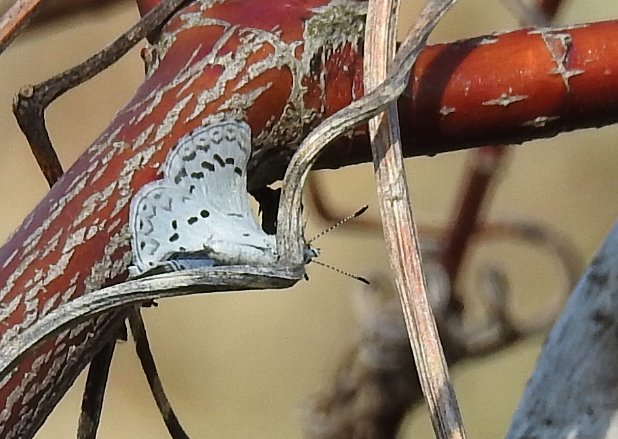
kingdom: Animalia
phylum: Arthropoda
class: Insecta
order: Lepidoptera
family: Lycaenidae
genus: Celastrina
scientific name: Celastrina lucia
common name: Northern Spring Azure
